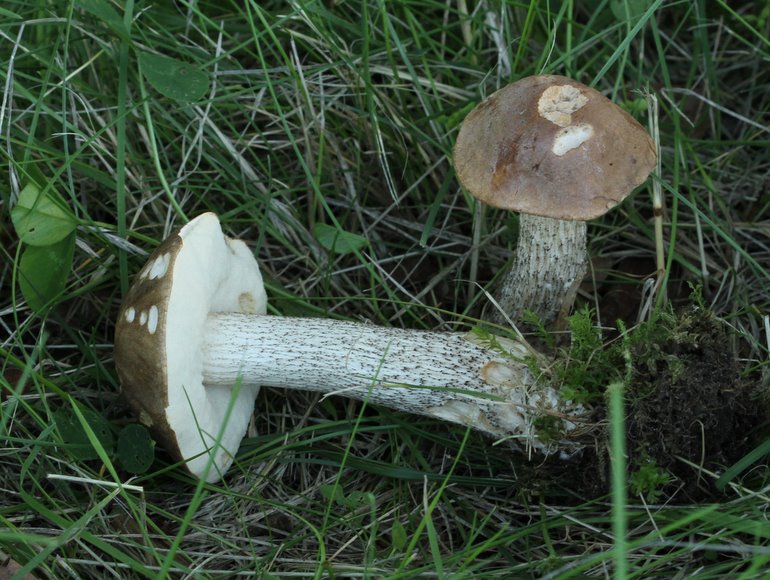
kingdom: Fungi
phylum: Basidiomycota
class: Agaricomycetes
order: Boletales
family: Boletaceae
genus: Leccinum
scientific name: Leccinum scabrum
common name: brun skælrørhat
